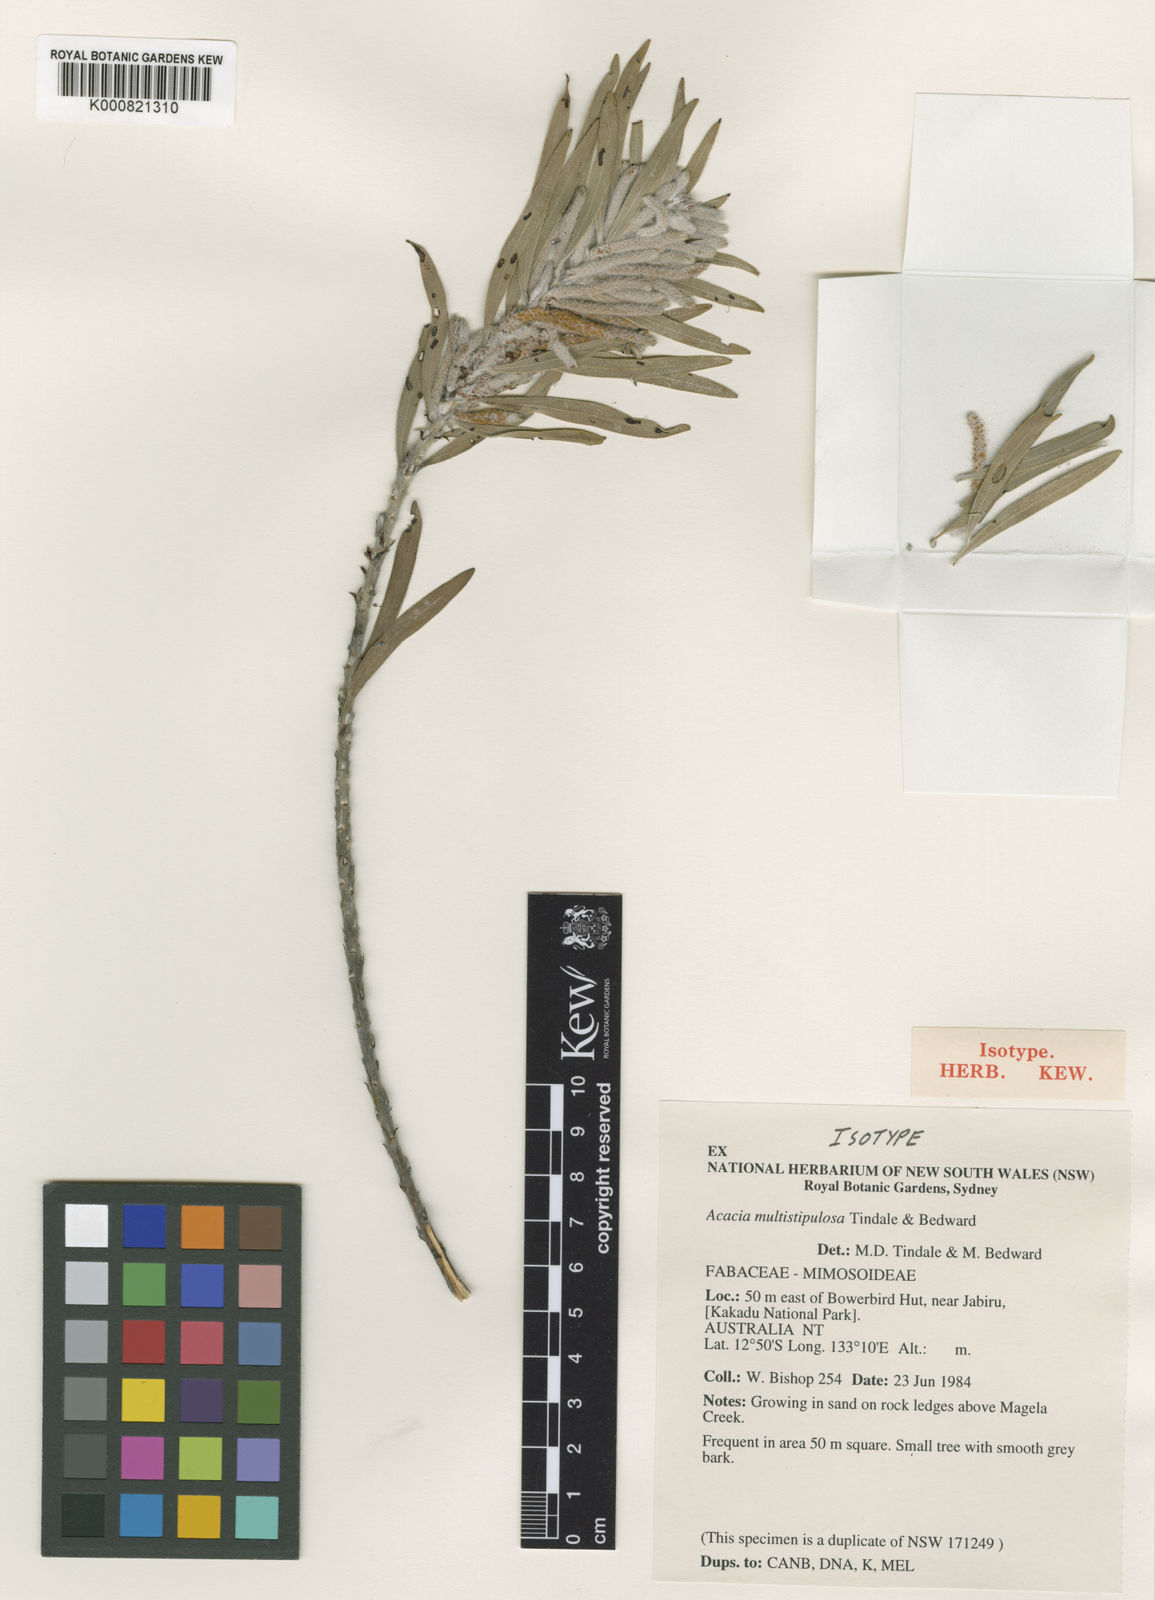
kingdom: Plantae
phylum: Tracheophyta
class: Magnoliopsida
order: Fabales
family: Fabaceae
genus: Acacia
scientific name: Acacia multistipulosa
